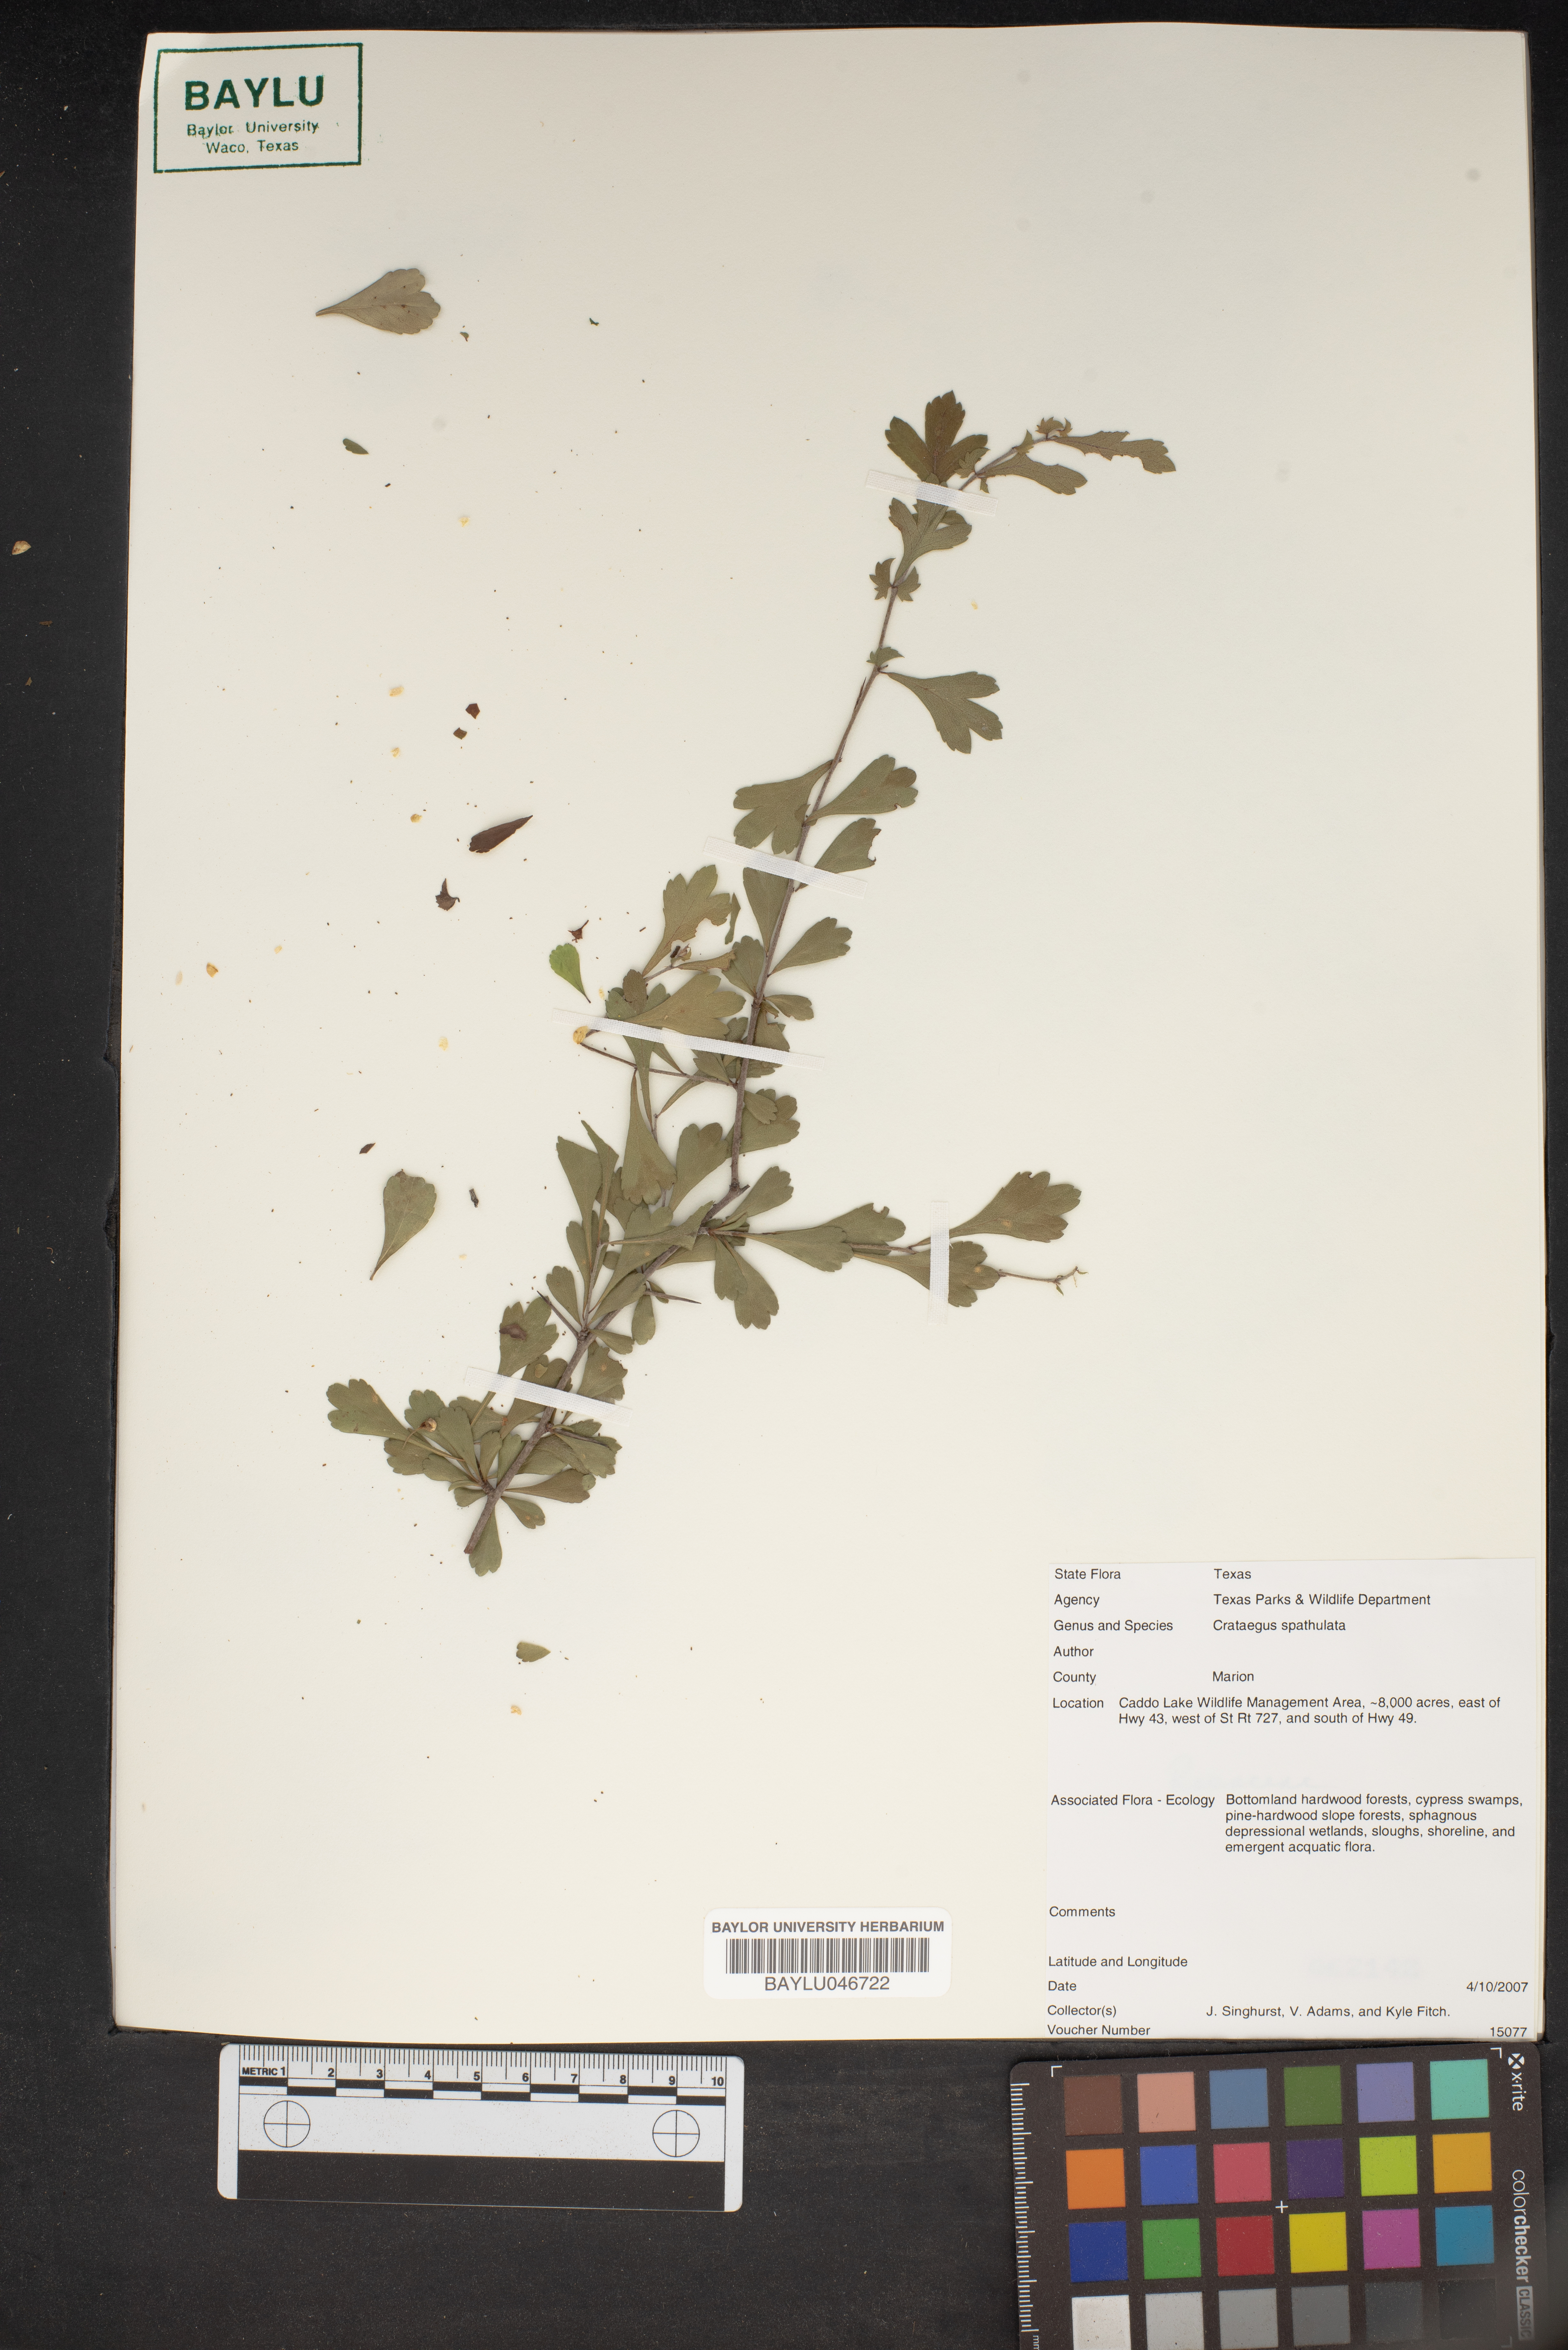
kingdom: Plantae
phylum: Tracheophyta
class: Magnoliopsida
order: Rosales
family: Rosaceae
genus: Crataegus
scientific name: Crataegus spathulata
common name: Littlehip hawthorn
